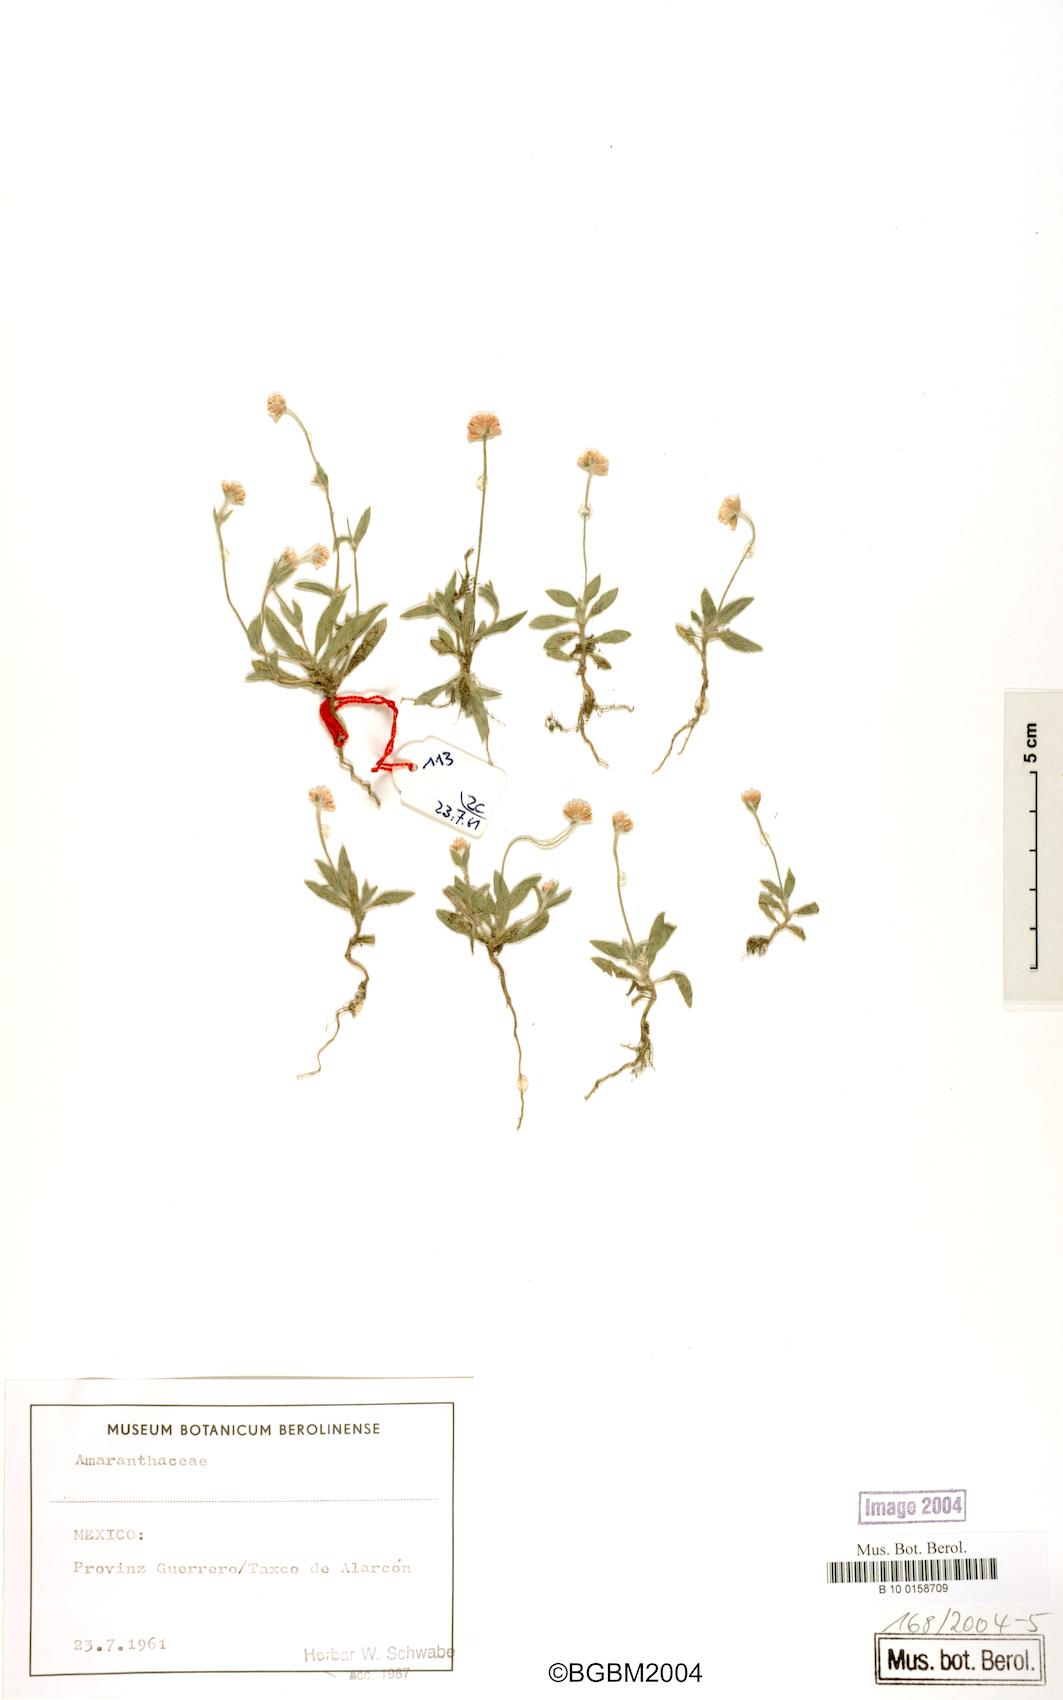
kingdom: Plantae
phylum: Tracheophyta
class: Magnoliopsida
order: Caryophyllales
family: Amaranthaceae
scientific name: Amaranthaceae
